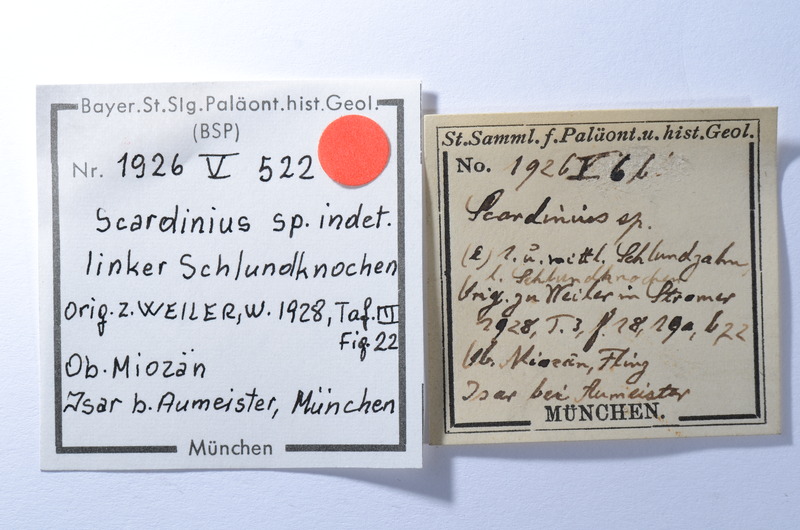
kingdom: Animalia
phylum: Chordata
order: Cypriniformes
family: Cyprinidae
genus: Scardinius
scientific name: Scardinius
